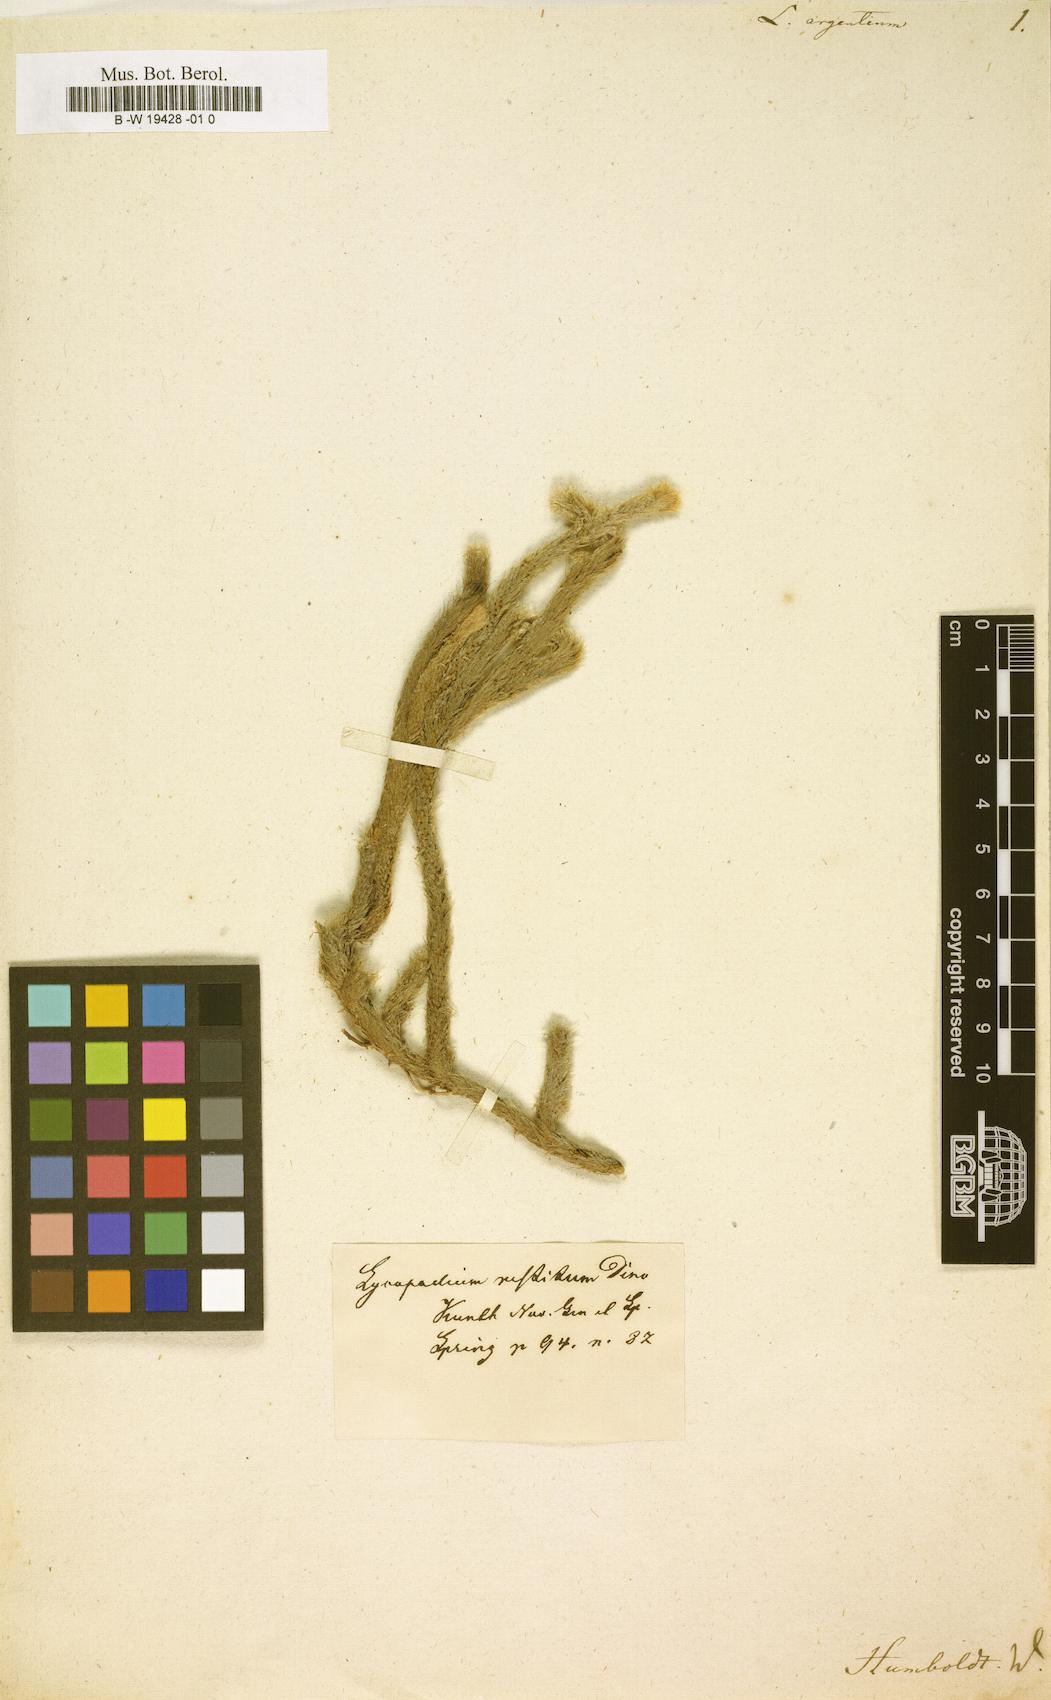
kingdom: Plantae
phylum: Tracheophyta
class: Lycopodiopsida
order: Selaginellales
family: Selaginellaceae
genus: Selaginella
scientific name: Selaginella argentea
